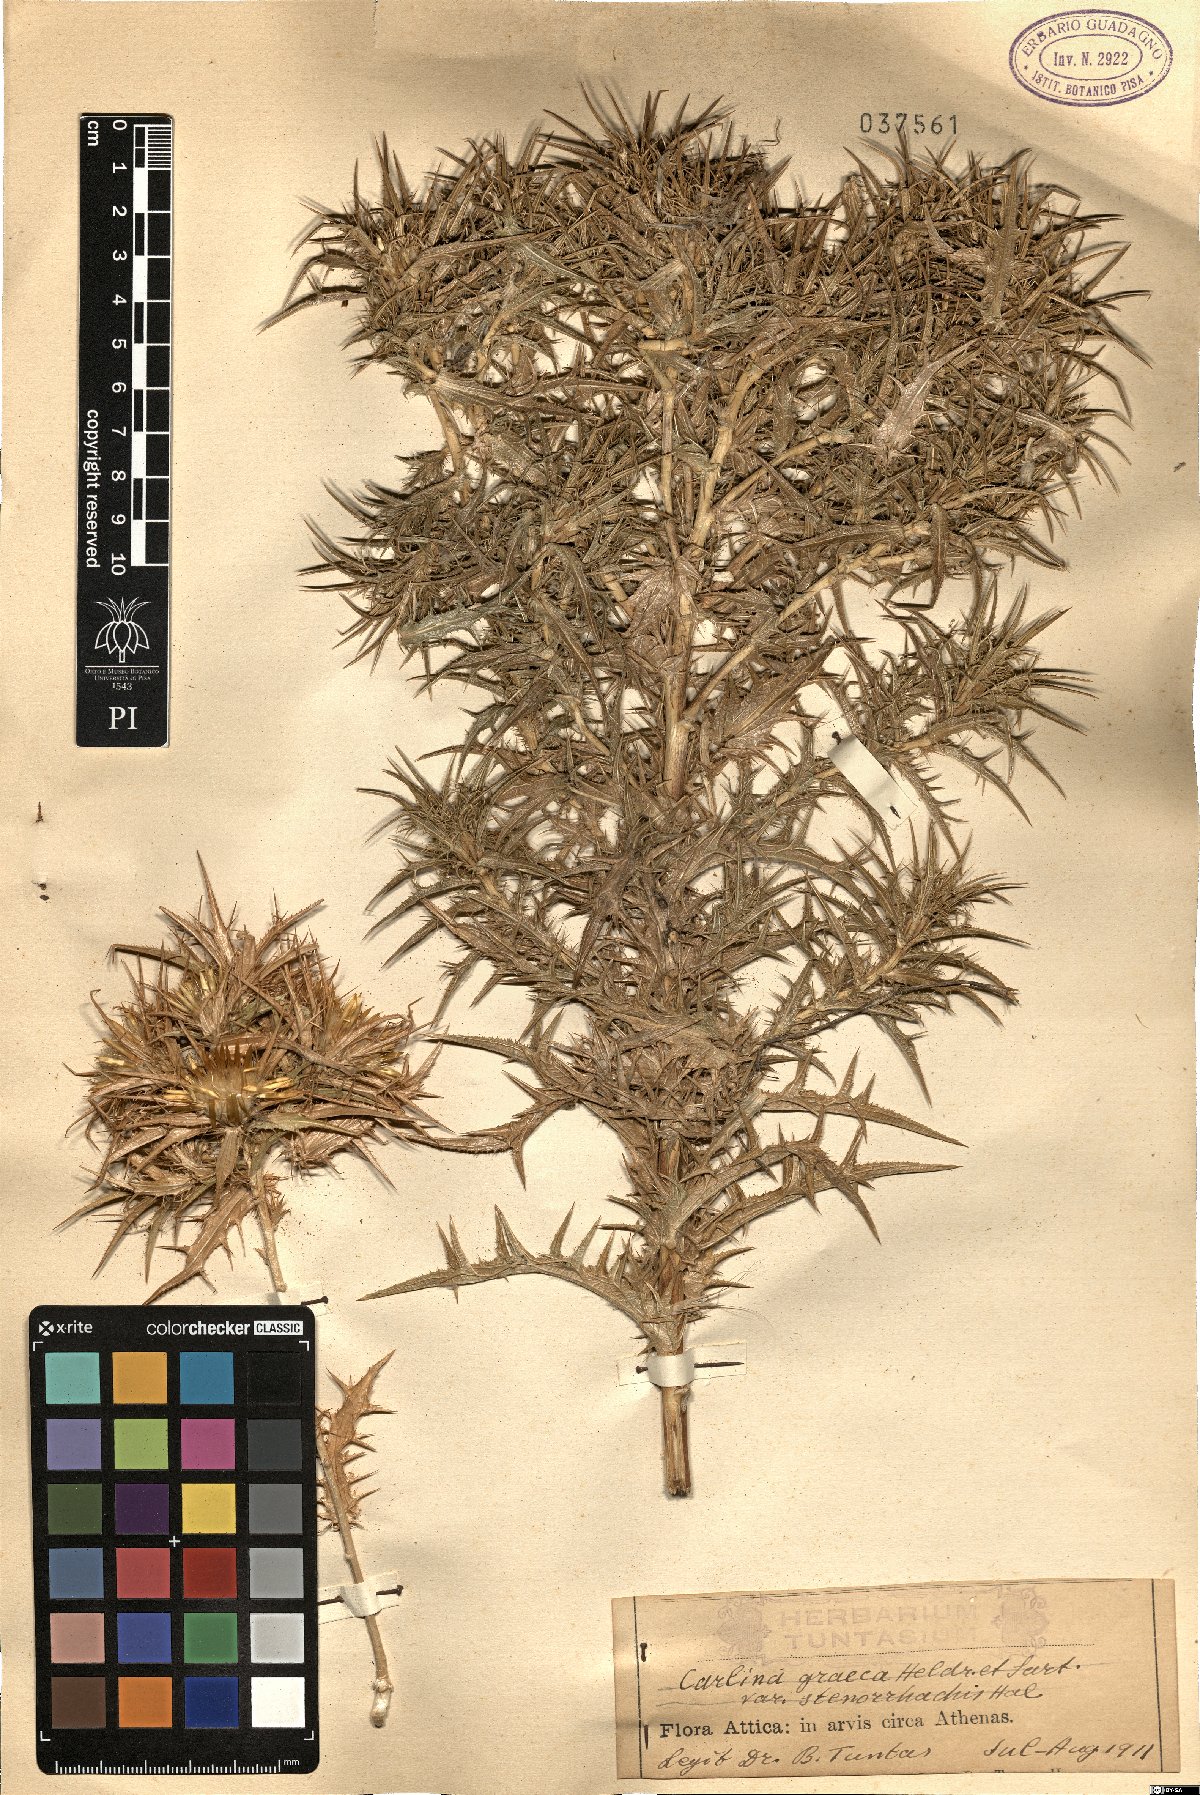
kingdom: Plantae
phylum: Tracheophyta
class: Magnoliopsida
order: Asterales
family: Asteraceae
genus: Carlina
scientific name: Carlina graeca
